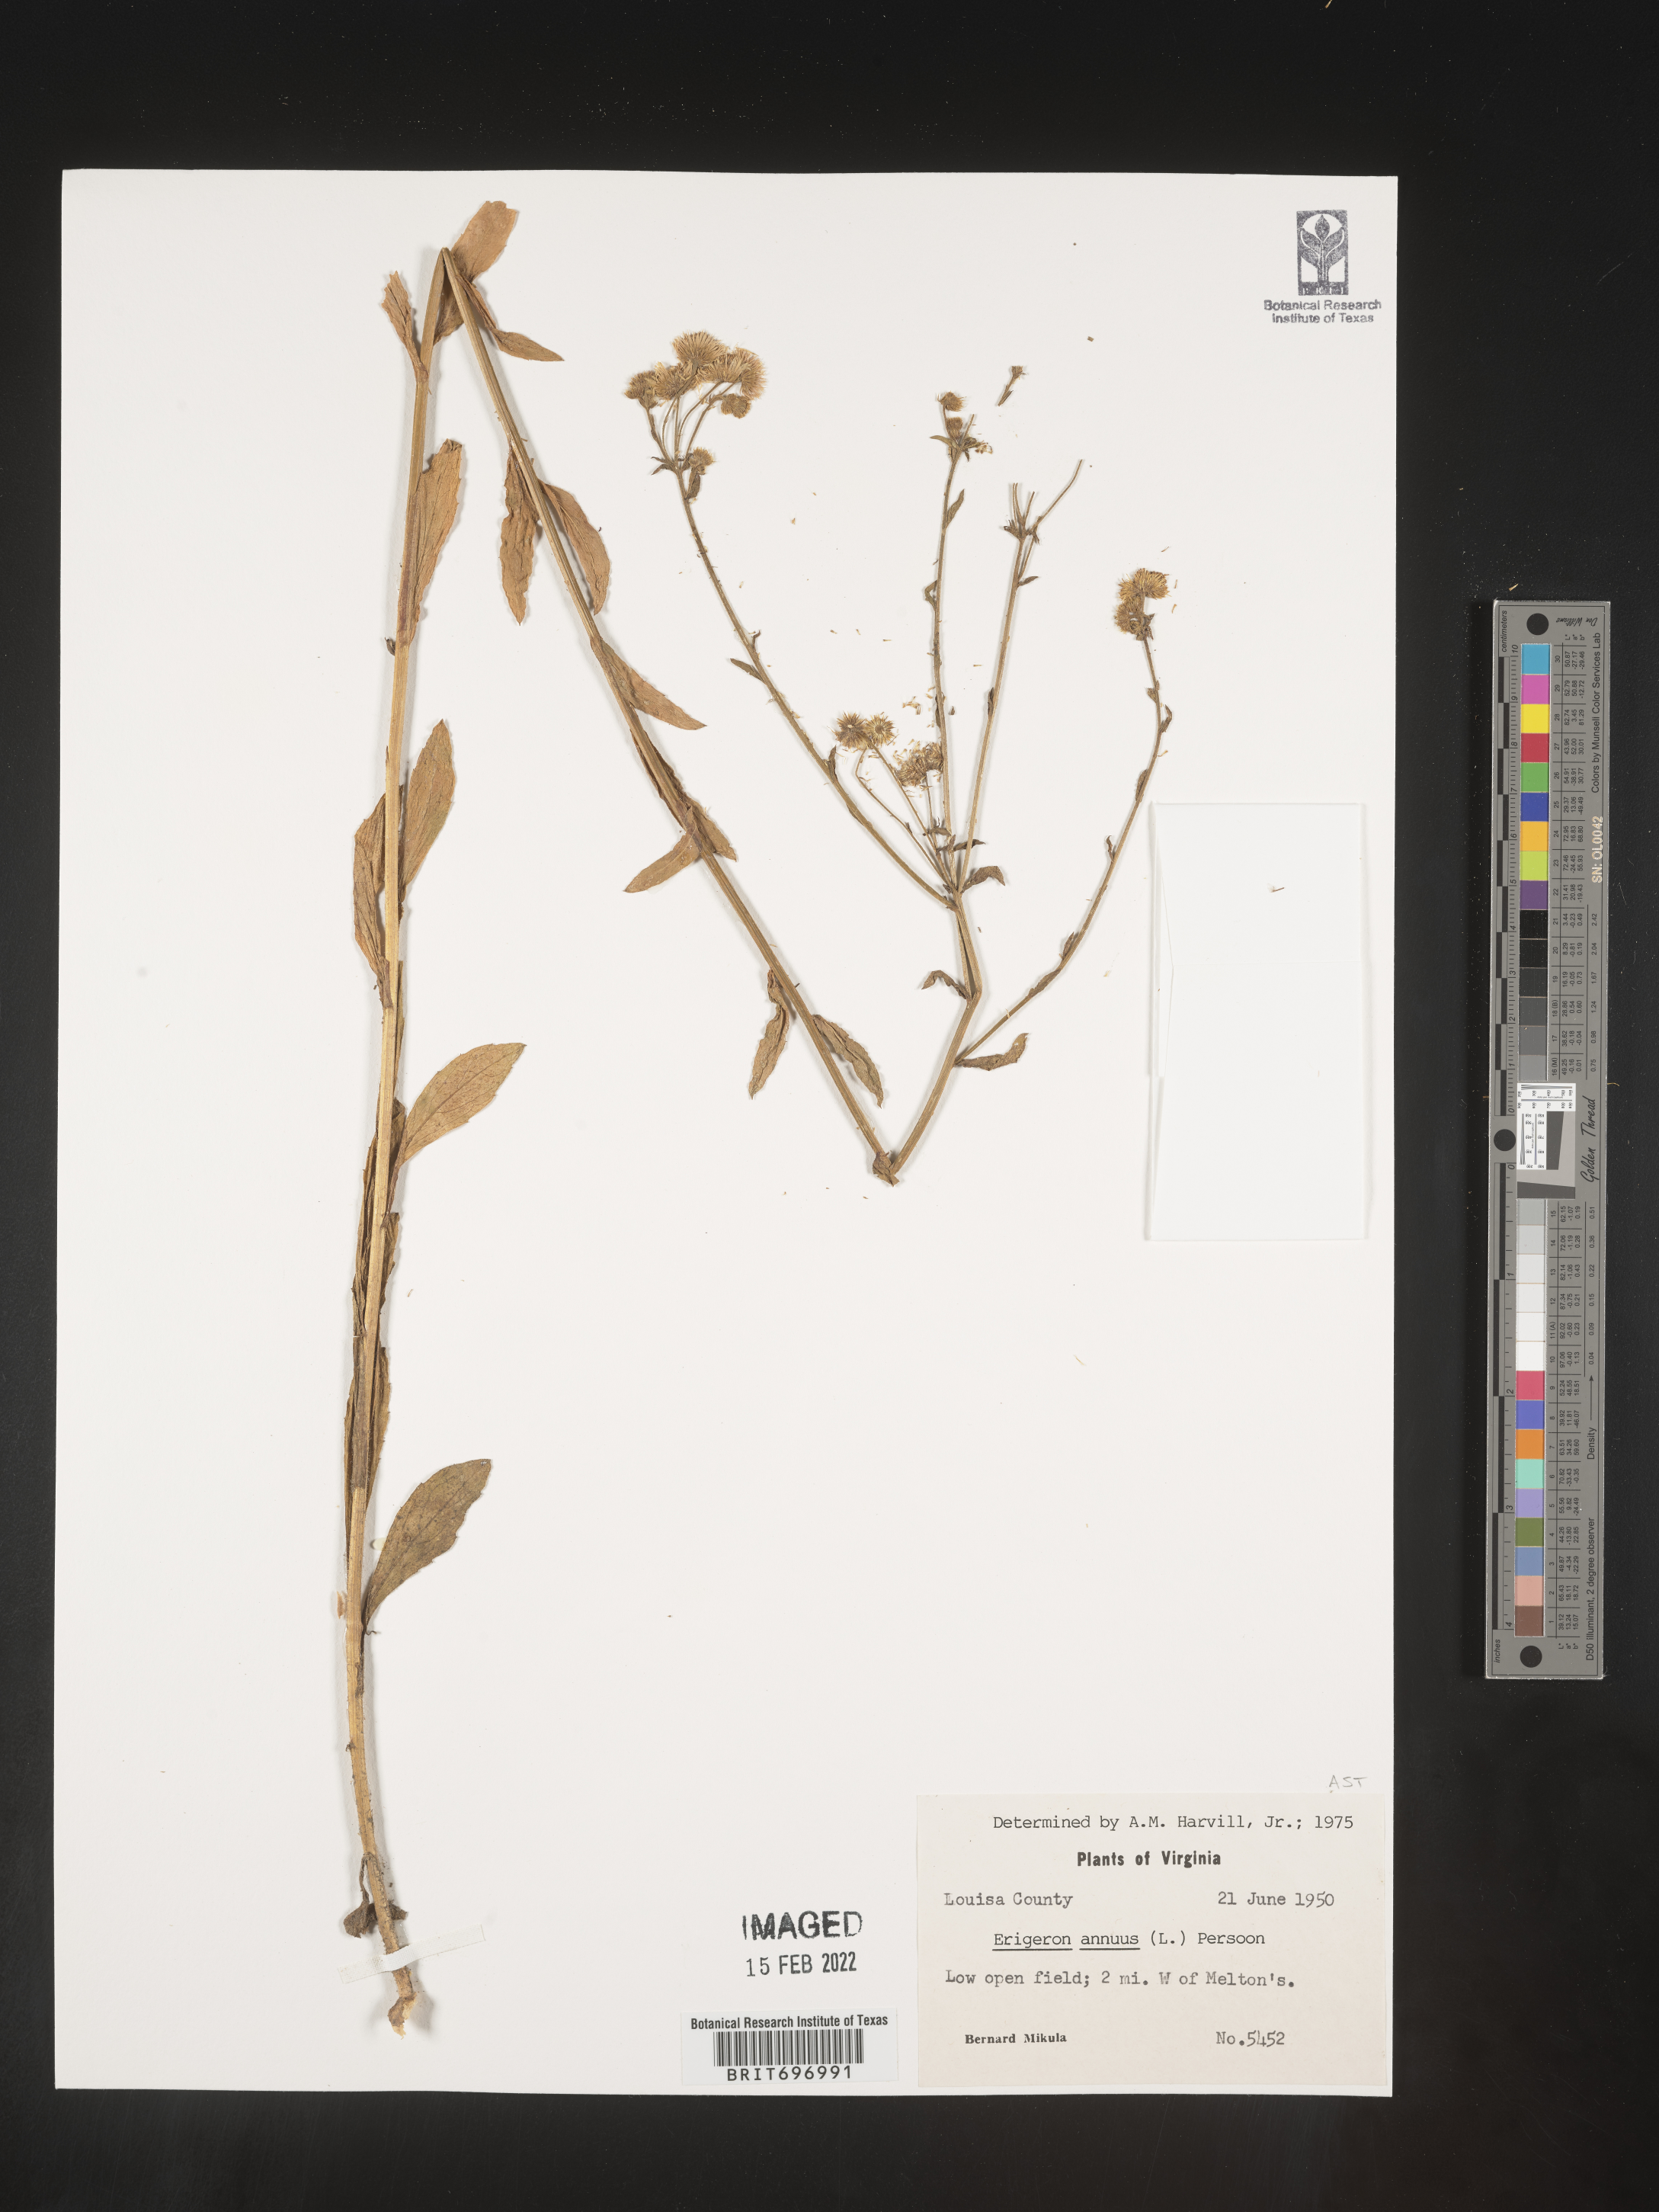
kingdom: Plantae
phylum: Tracheophyta
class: Magnoliopsida
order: Asterales
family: Asteraceae
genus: Erigeron
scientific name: Erigeron annuus
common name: Tall fleabane
